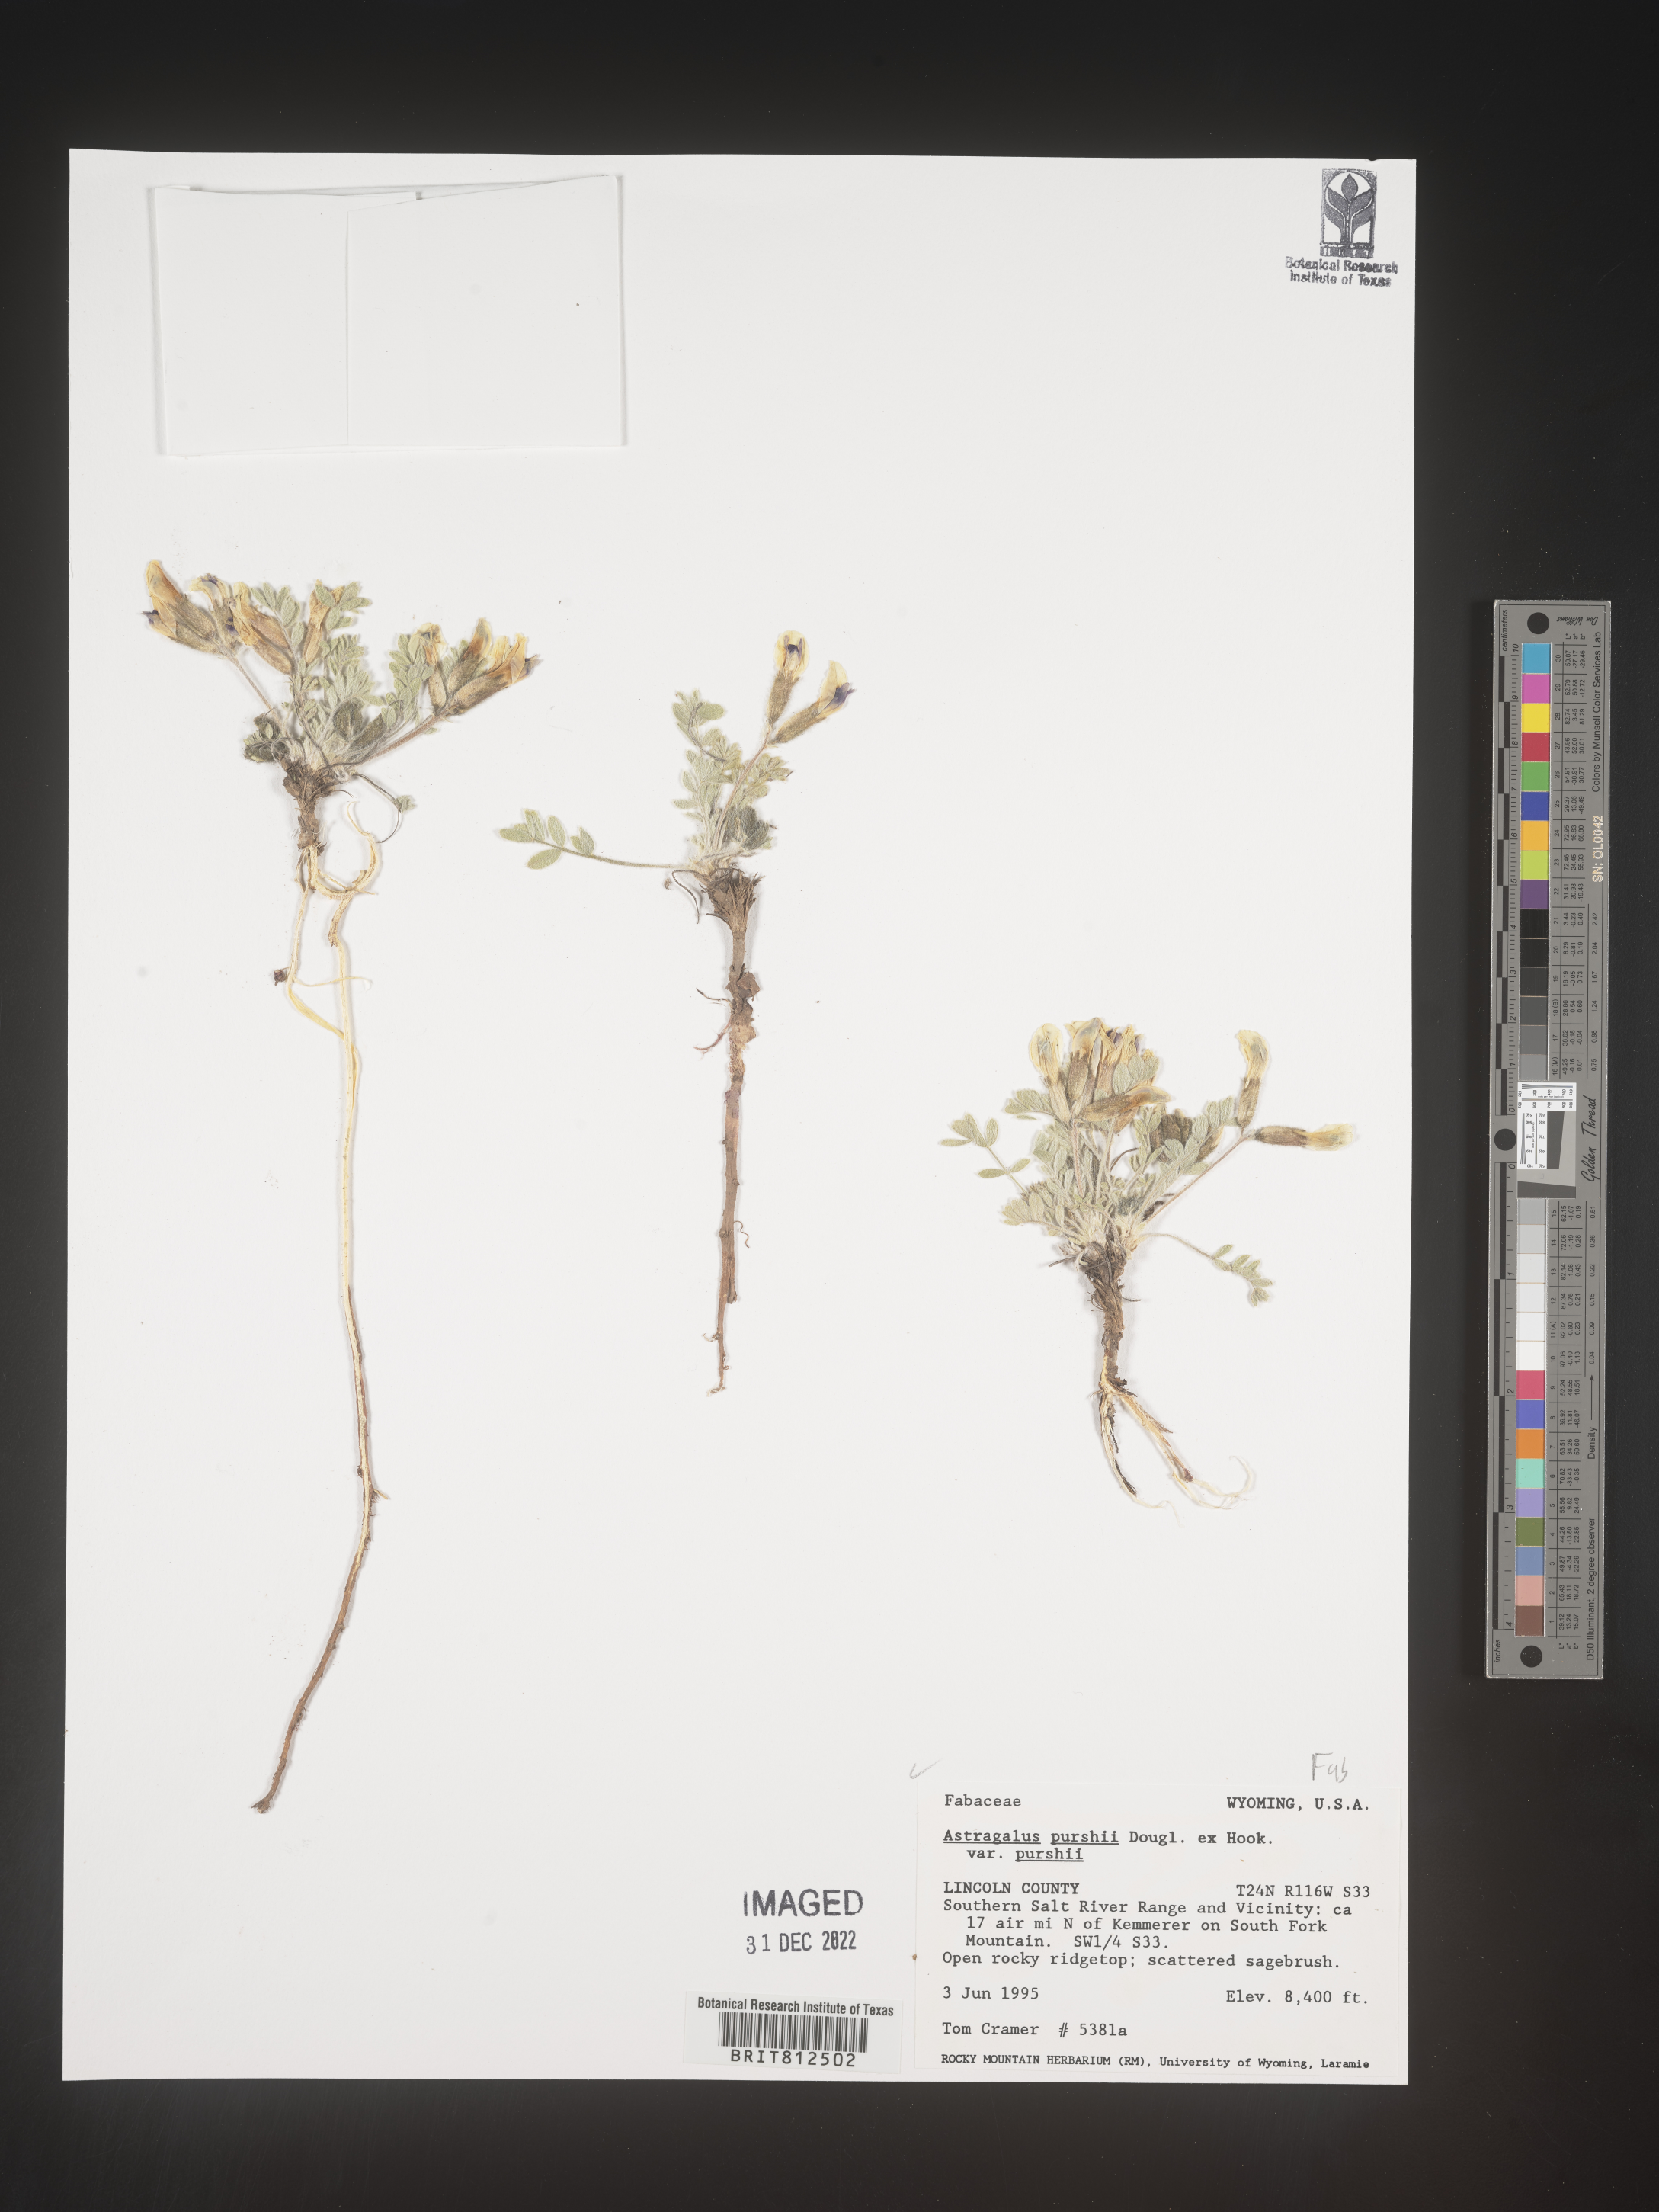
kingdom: Plantae
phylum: Tracheophyta
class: Magnoliopsida
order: Fabales
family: Fabaceae
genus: Astragalus
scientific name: Astragalus leucolobus
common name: Big bear valley woollypod
